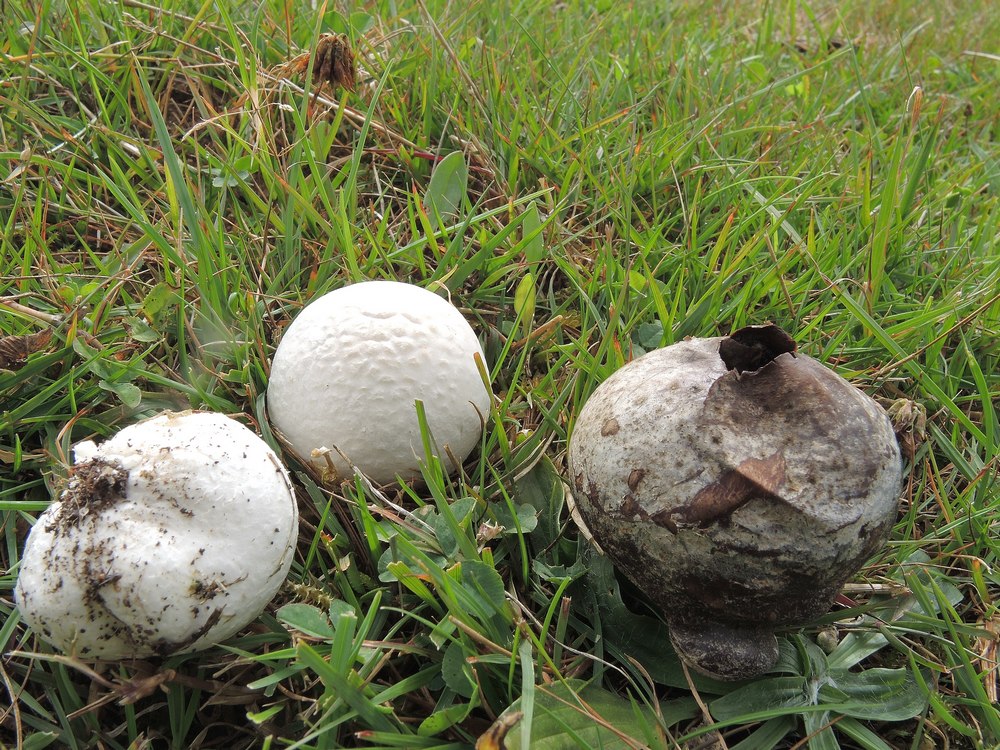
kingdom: Fungi
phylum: Basidiomycota
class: Agaricomycetes
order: Agaricales
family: Lycoperdaceae
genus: Bovista
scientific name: Bovista nigrescens
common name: sortagtig bovist
